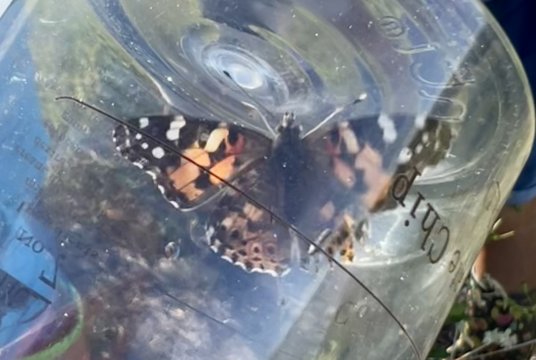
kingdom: Animalia
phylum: Arthropoda
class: Insecta
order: Lepidoptera
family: Nymphalidae
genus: Vanessa
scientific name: Vanessa cardui
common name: Painted Lady
